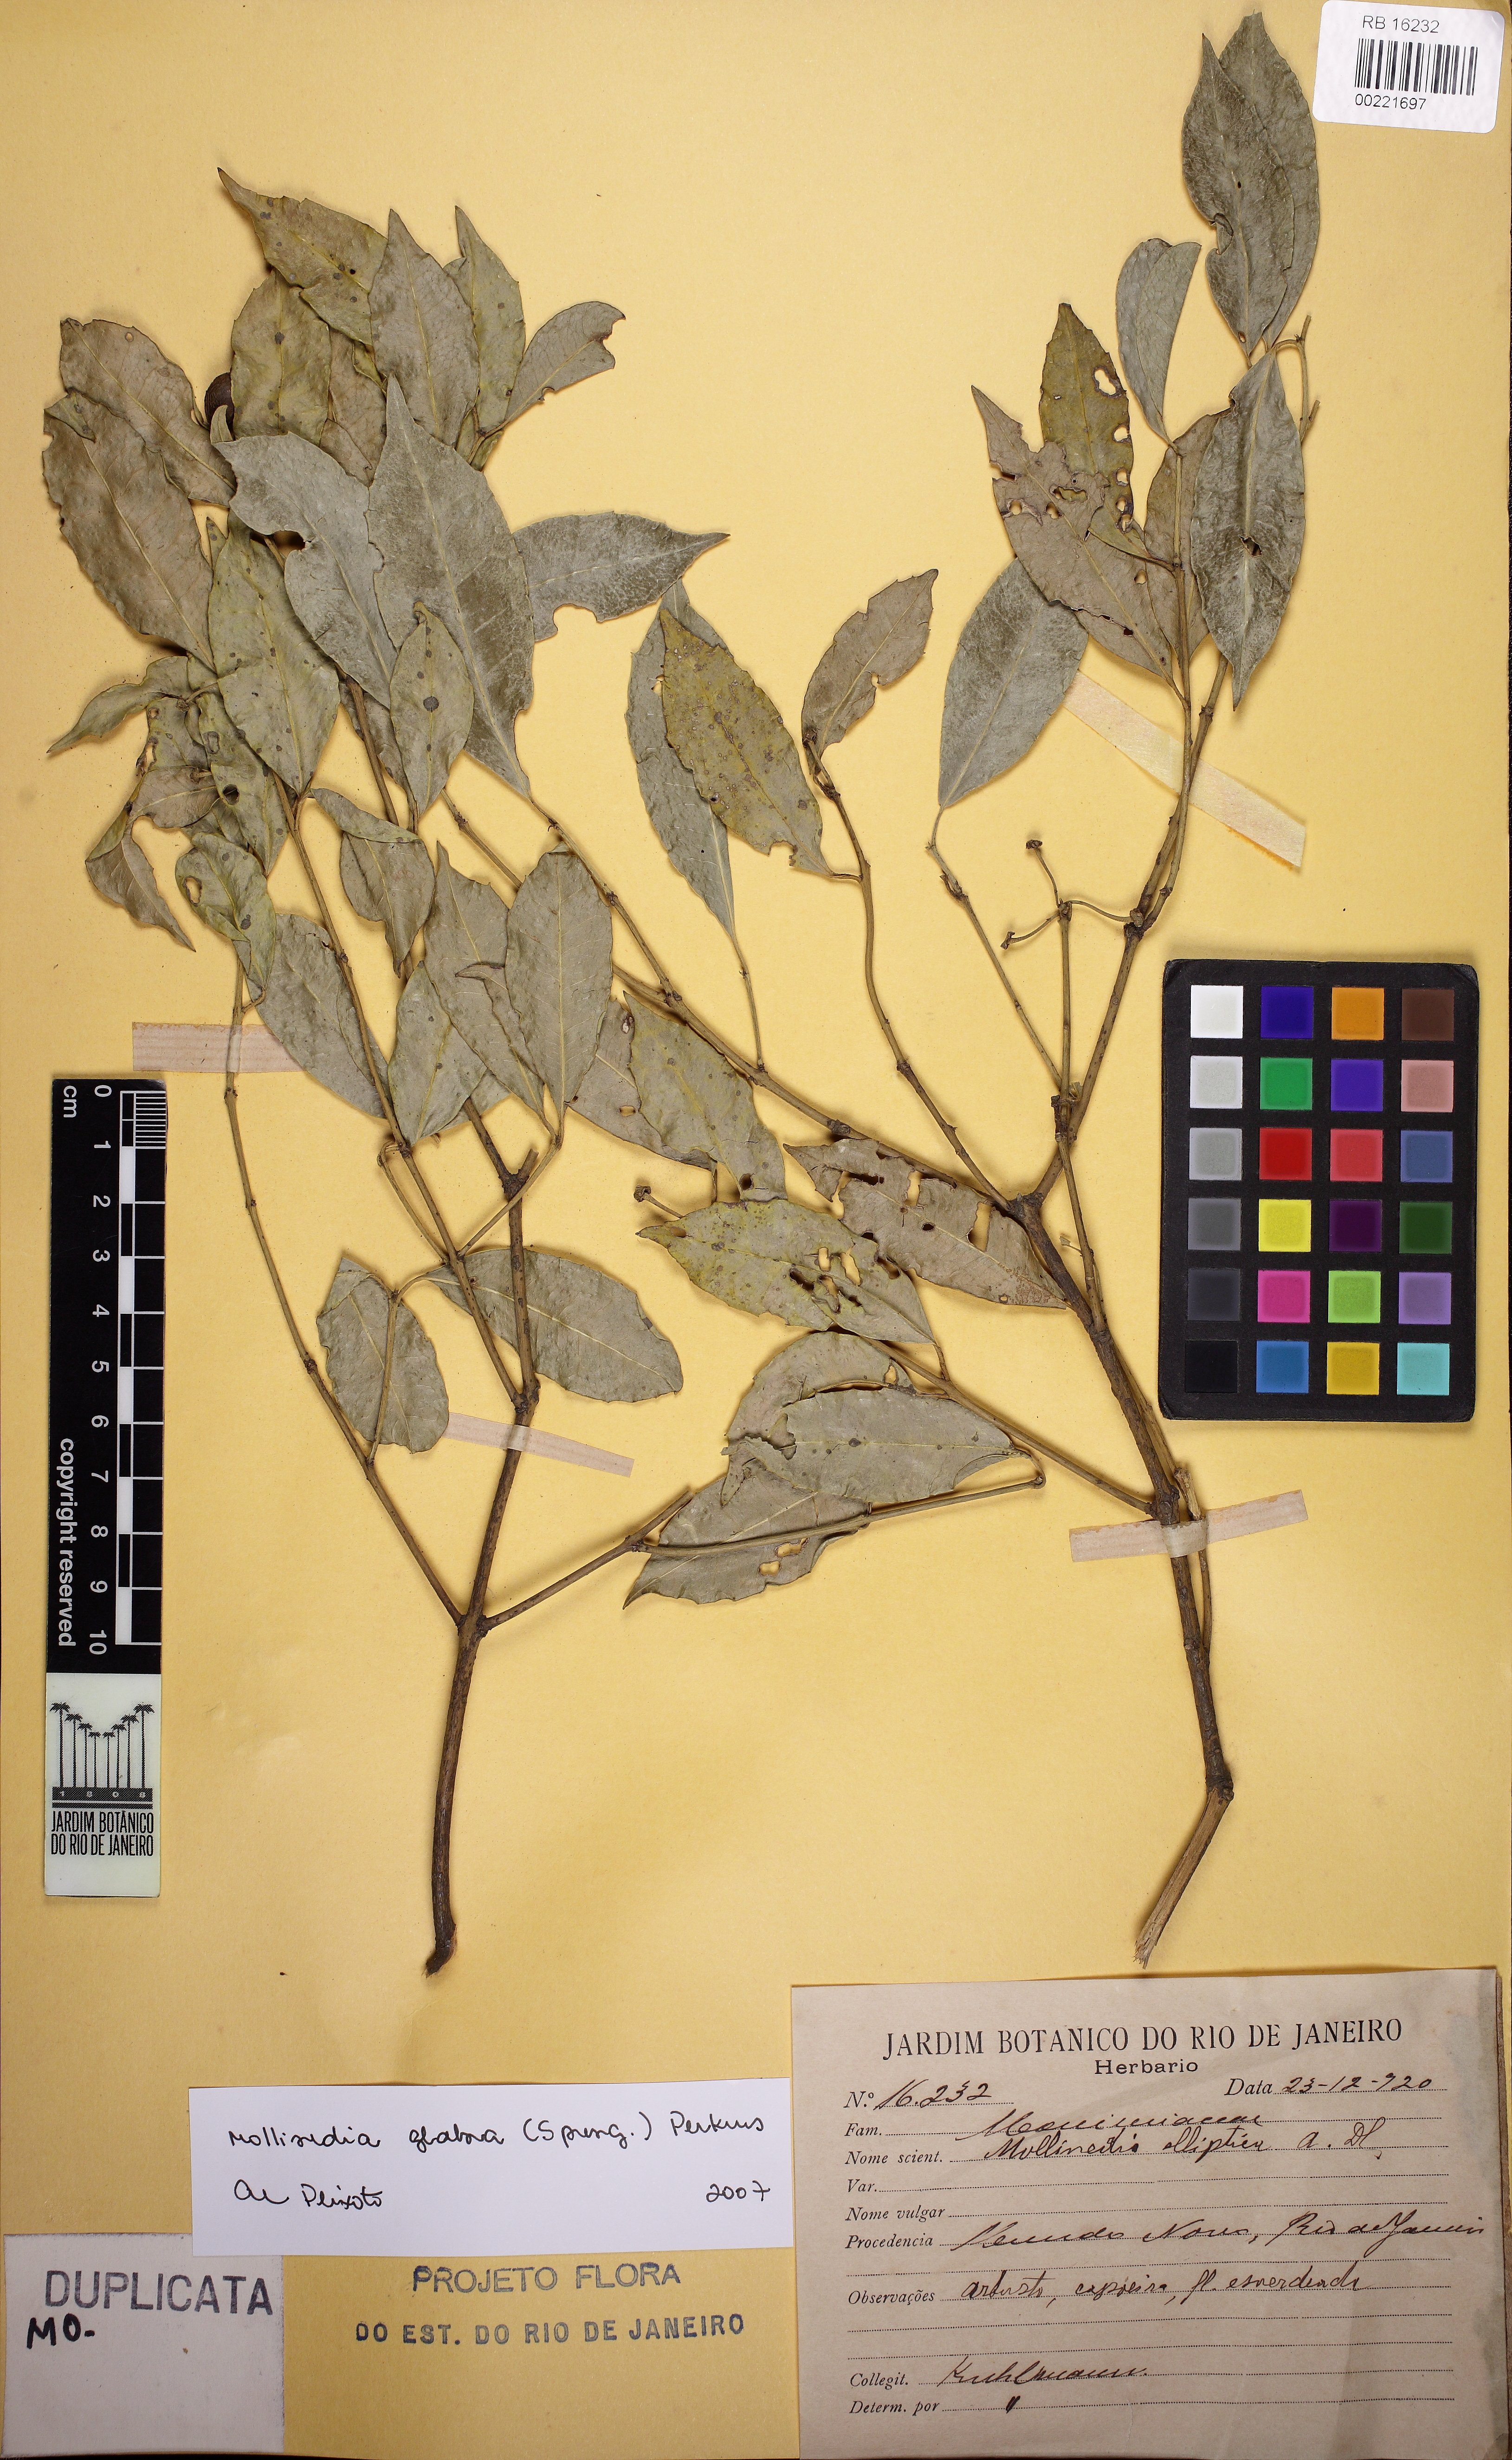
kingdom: Plantae
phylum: Tracheophyta
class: Magnoliopsida
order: Laurales
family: Monimiaceae
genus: Mollinedia
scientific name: Mollinedia glabra
